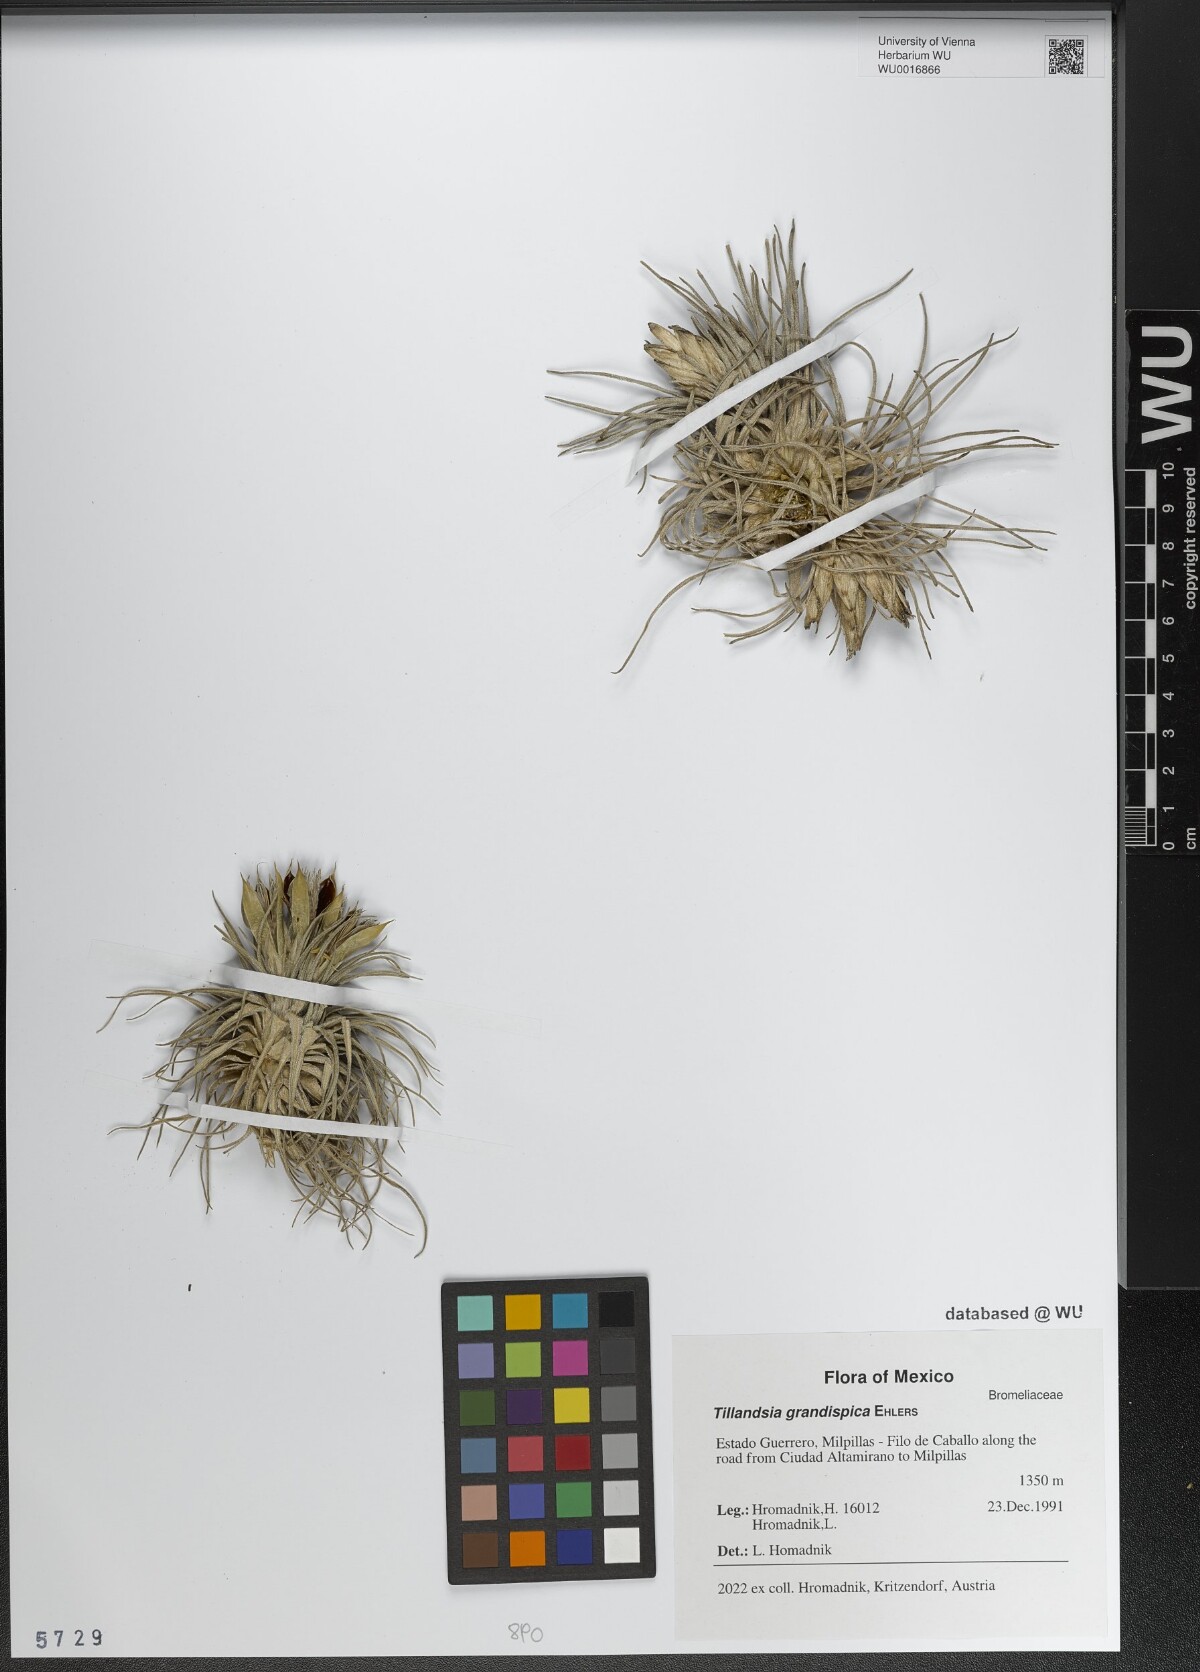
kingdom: Plantae
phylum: Tracheophyta
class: Liliopsida
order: Poales
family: Bromeliaceae
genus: Tillandsia
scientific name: Tillandsia grandispica
